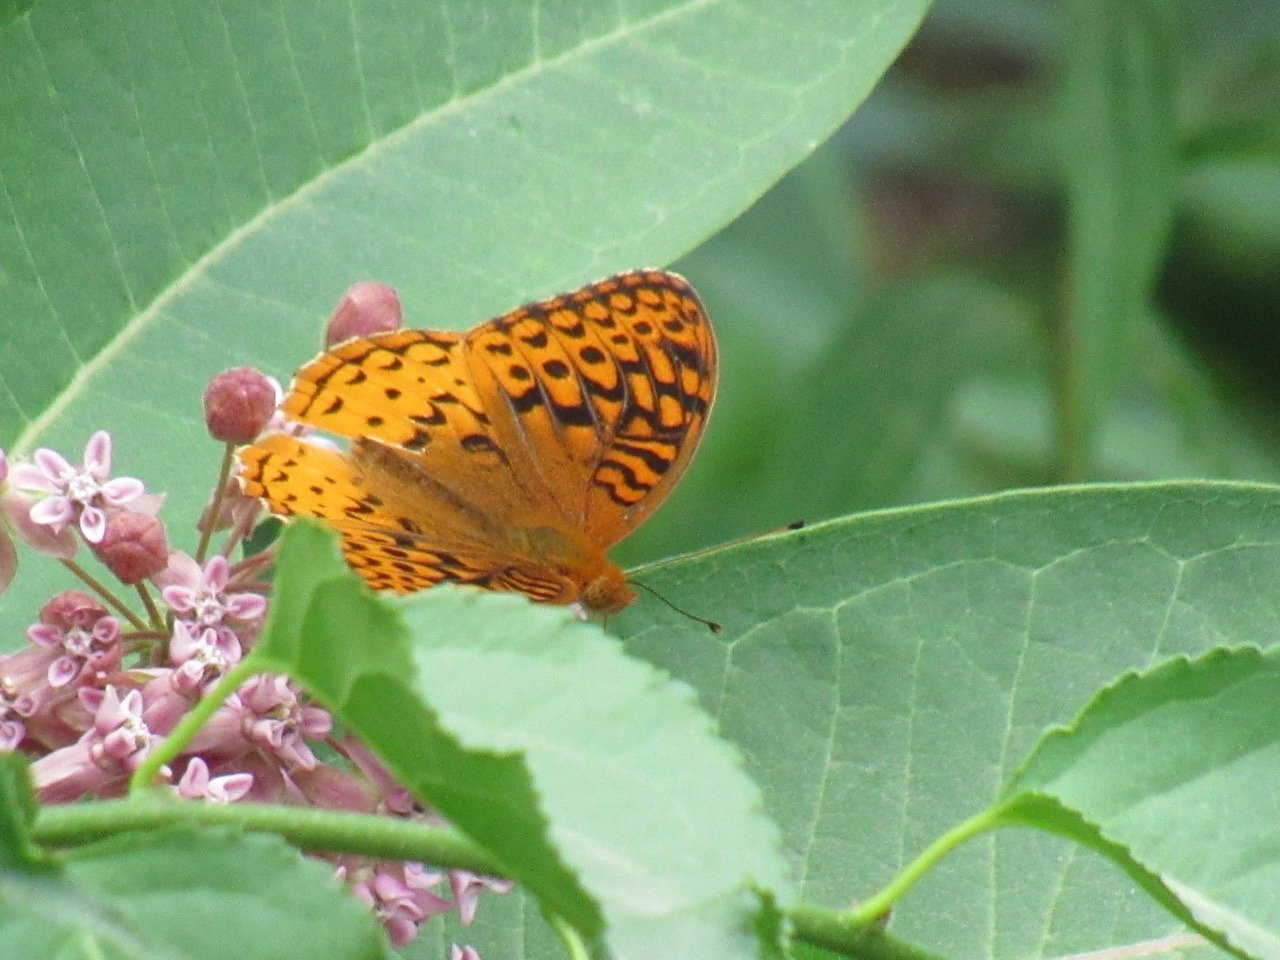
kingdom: Animalia
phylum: Arthropoda
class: Insecta
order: Lepidoptera
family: Nymphalidae
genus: Speyeria
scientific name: Speyeria cybele
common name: Great Spangled Fritillary
